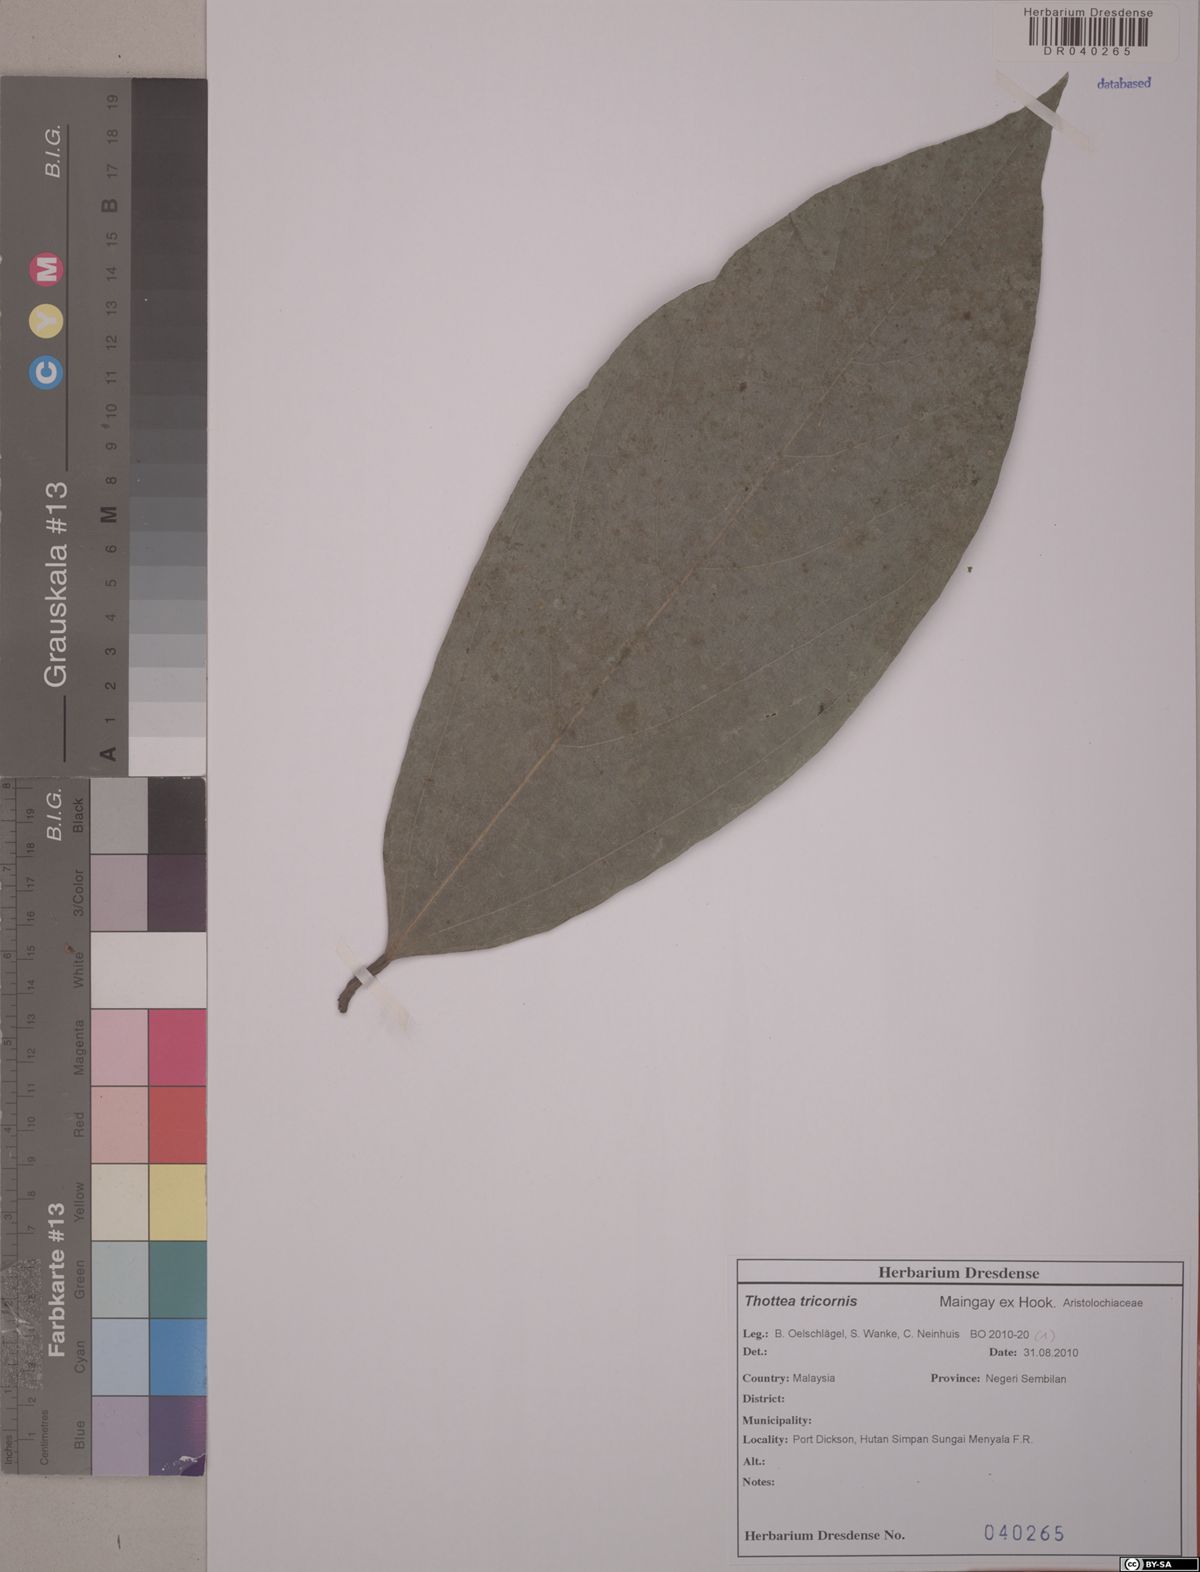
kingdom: Plantae
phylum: Tracheophyta
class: Magnoliopsida
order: Piperales
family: Aristolochiaceae
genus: Thottea
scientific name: Thottea tricornis
